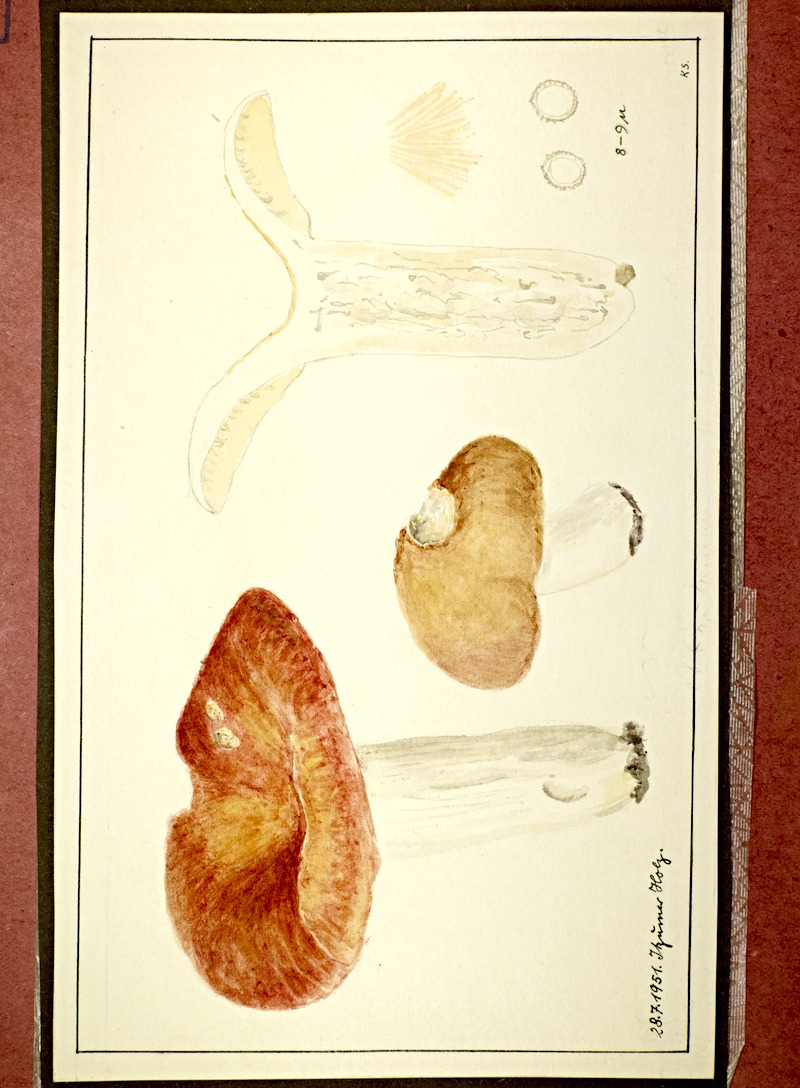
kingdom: Fungi
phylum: Basidiomycota
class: Agaricomycetes
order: Russulales
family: Russulaceae
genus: Russula
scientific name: Russula
